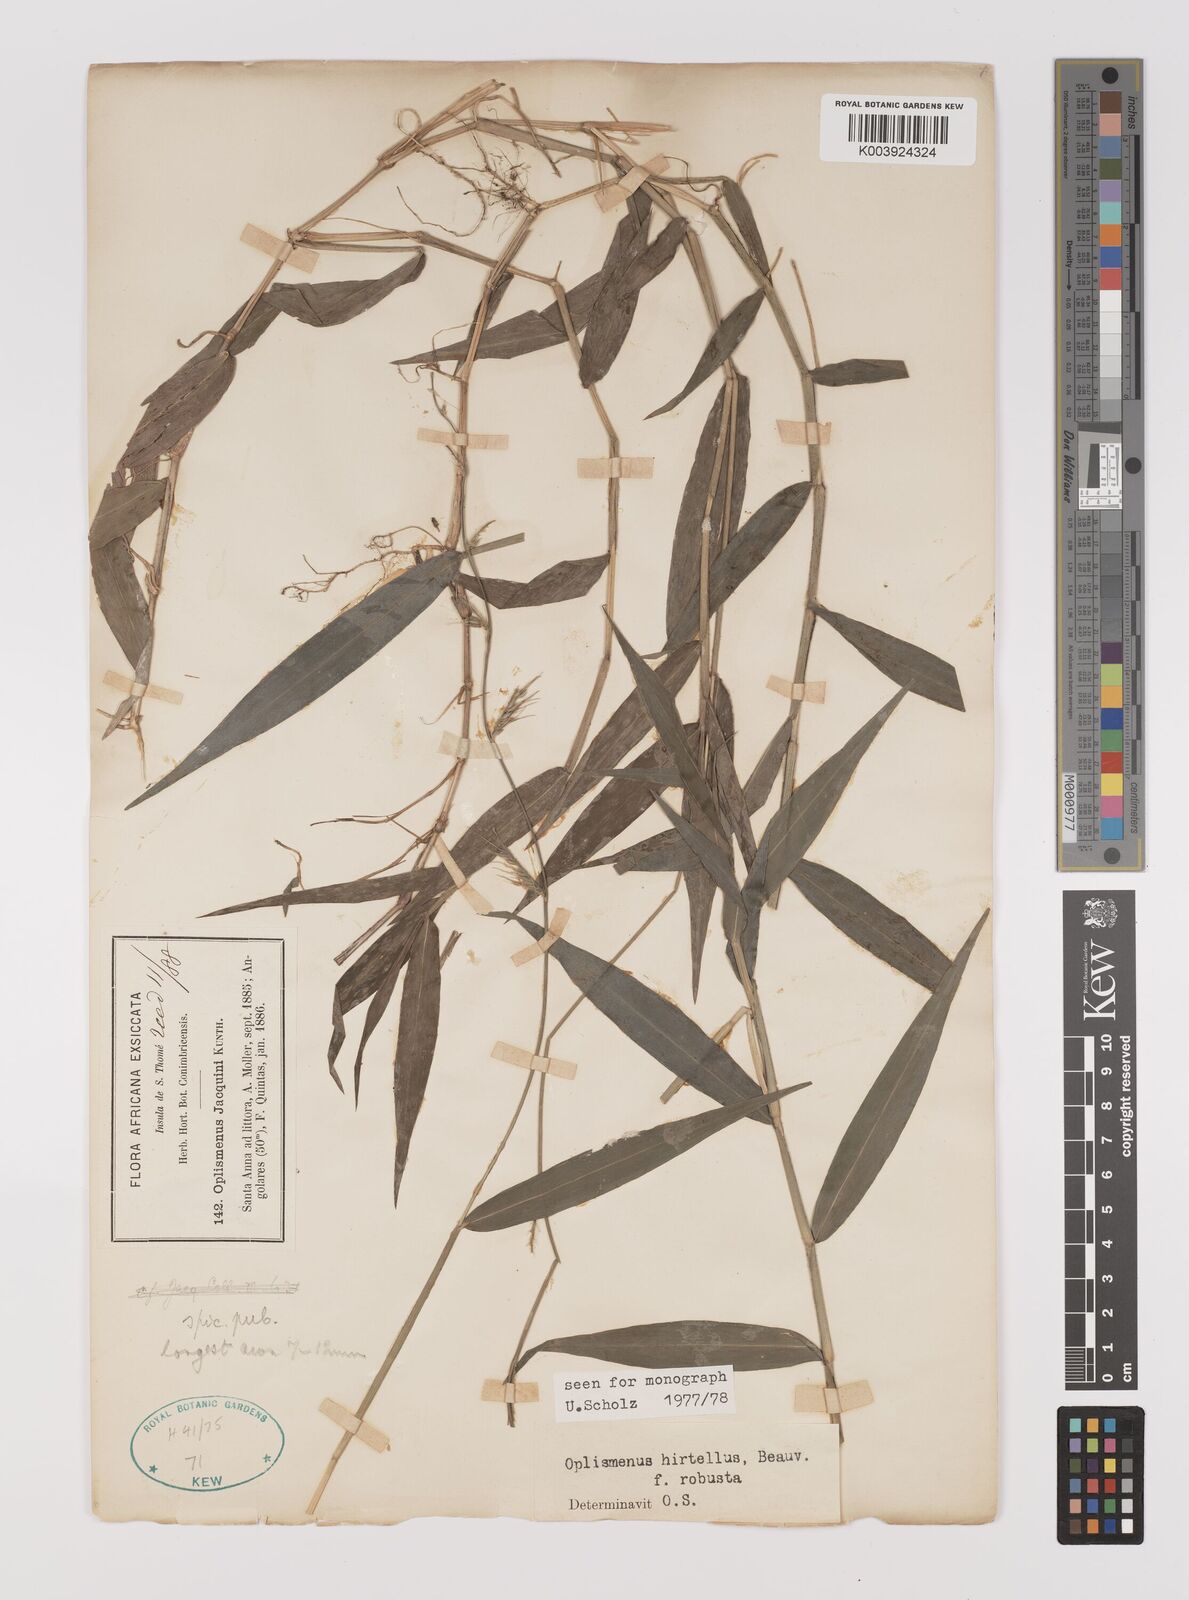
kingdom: Plantae
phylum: Tracheophyta
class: Liliopsida
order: Poales
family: Poaceae
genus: Oplismenus
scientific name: Oplismenus hirtellus
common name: Basketgrass
